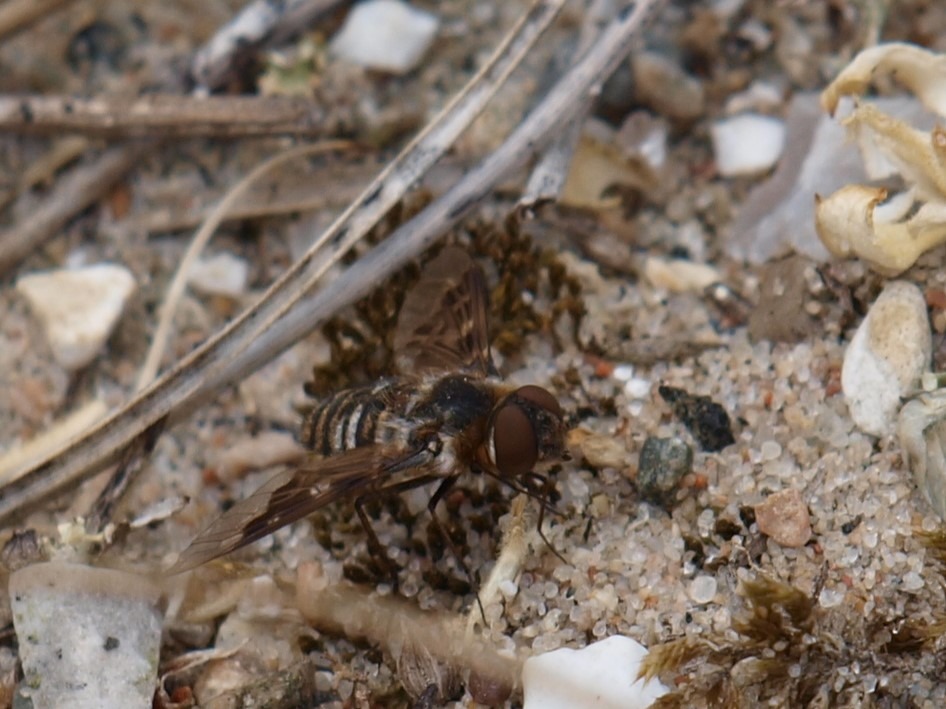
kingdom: Animalia
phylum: Arthropoda
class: Insecta
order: Diptera
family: Bombyliidae
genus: Thyridanthrax
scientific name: Thyridanthrax fenestratus
